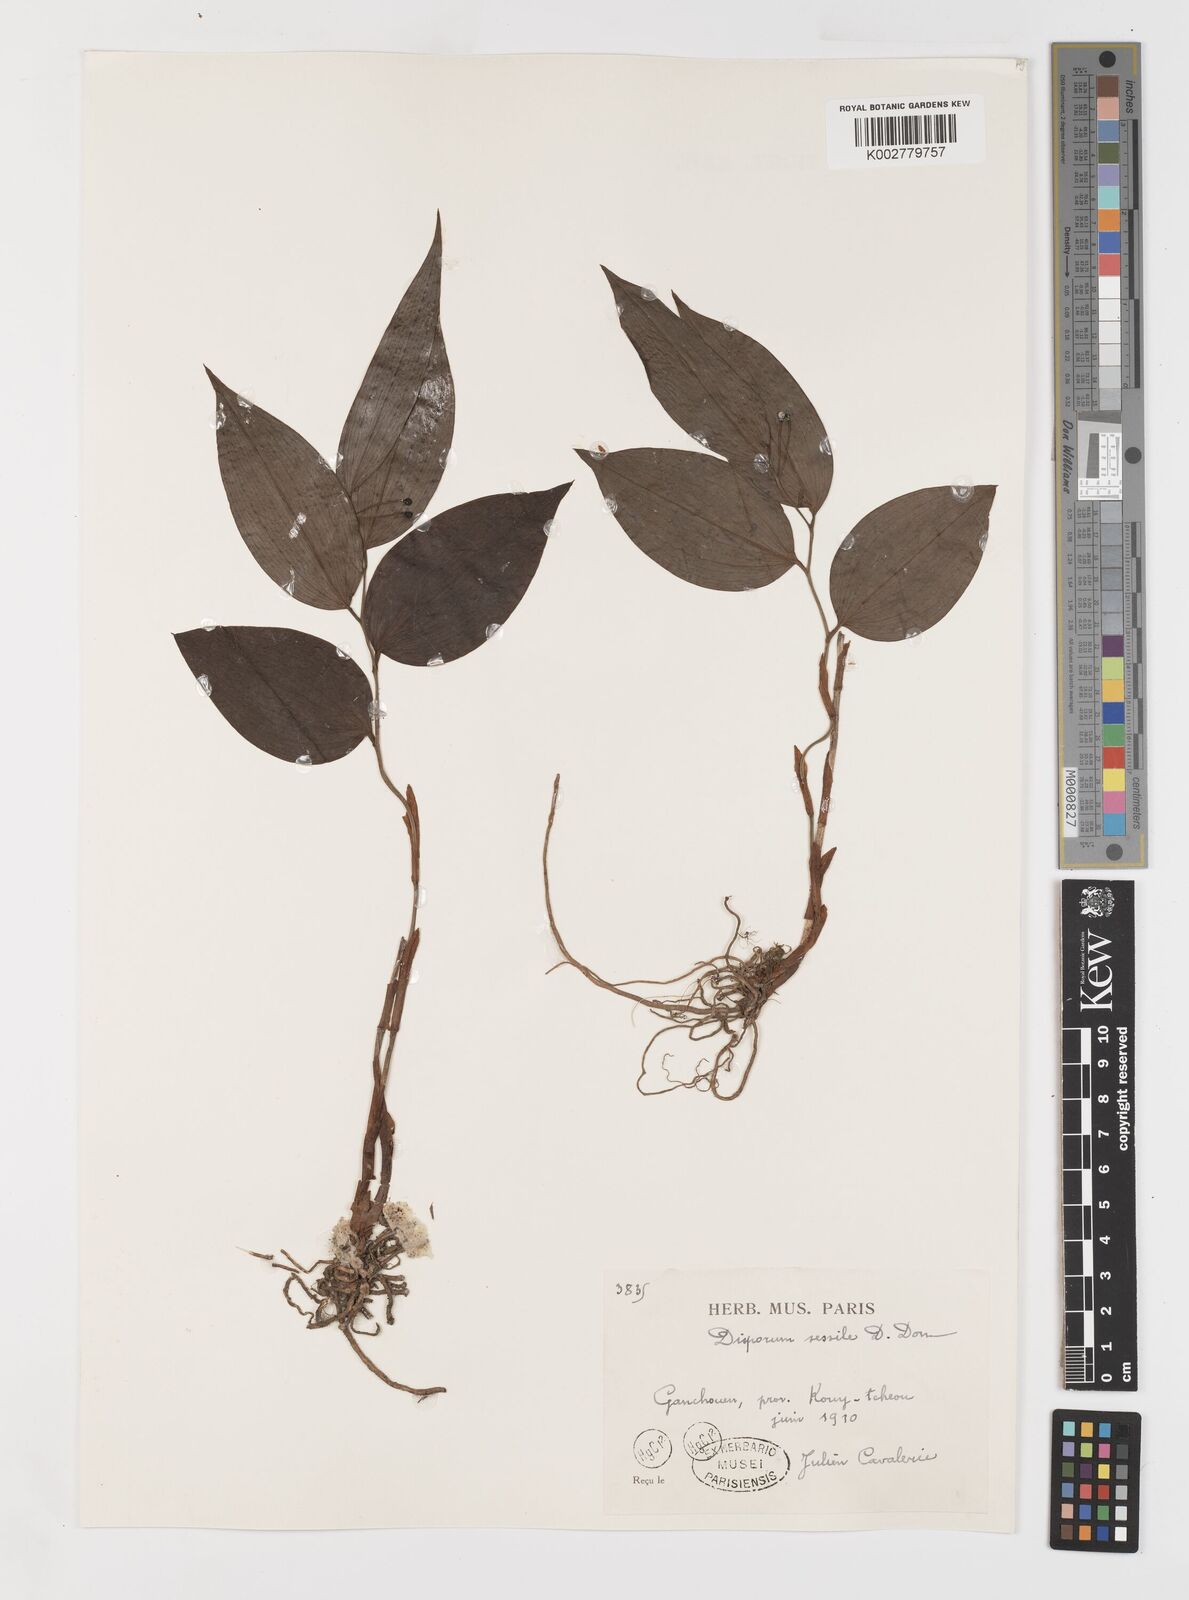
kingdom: Plantae
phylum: Tracheophyta
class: Liliopsida
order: Liliales
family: Colchicaceae
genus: Disporum
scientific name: Disporum sessile
